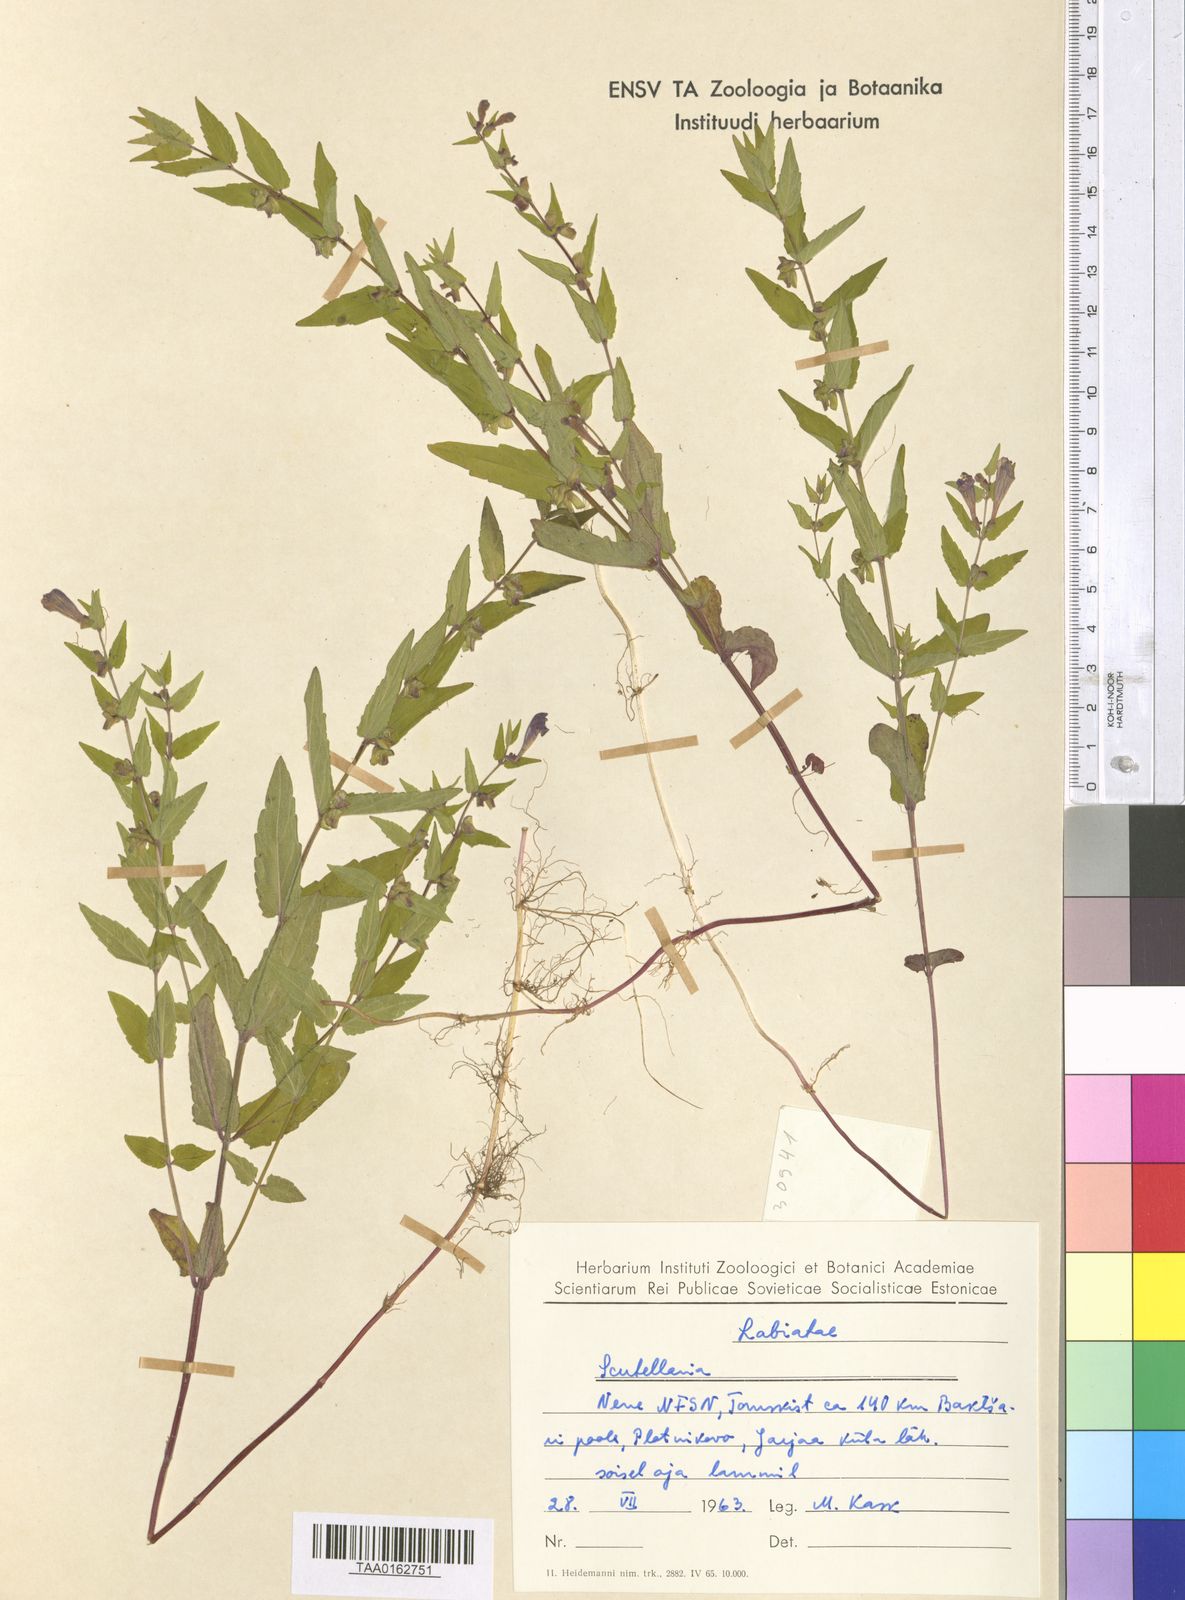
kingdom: Plantae
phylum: Tracheophyta
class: Magnoliopsida
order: Lamiales
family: Lamiaceae
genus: Scutellaria
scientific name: Scutellaria
